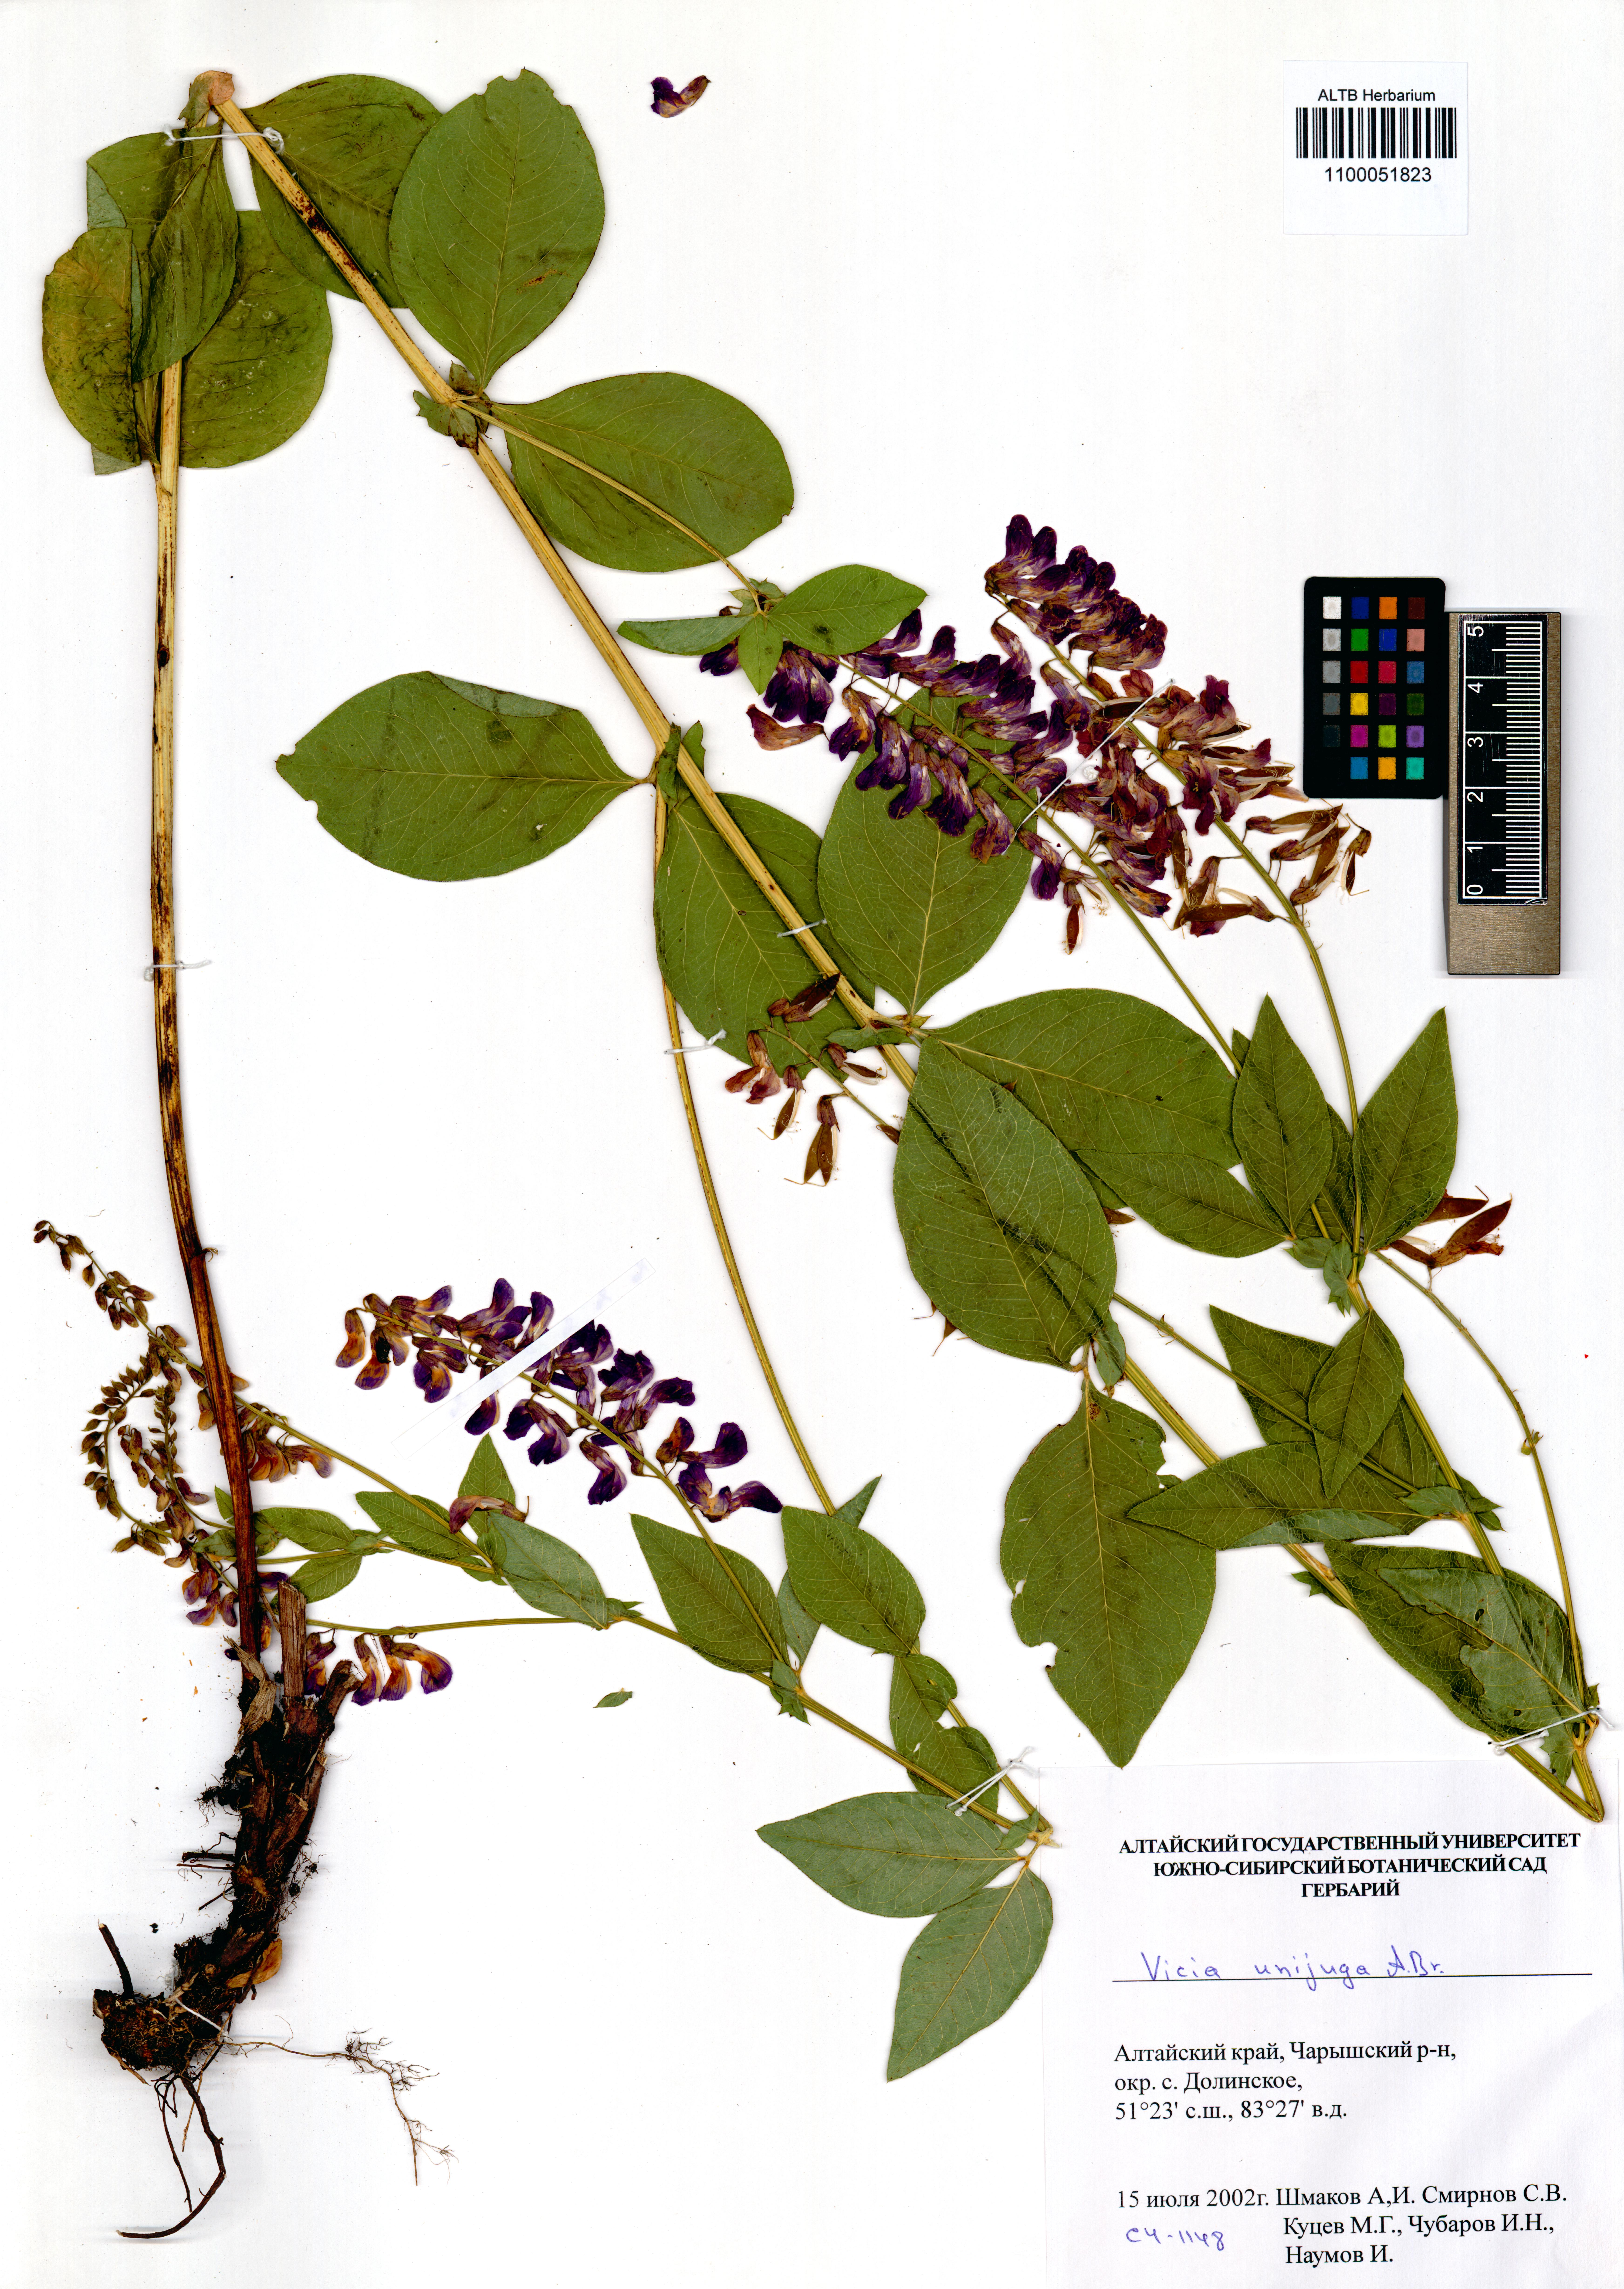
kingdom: Plantae
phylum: Tracheophyta
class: Magnoliopsida
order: Fabales
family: Fabaceae
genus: Vicia
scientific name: Vicia unijuga
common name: Two-leaf vetch
